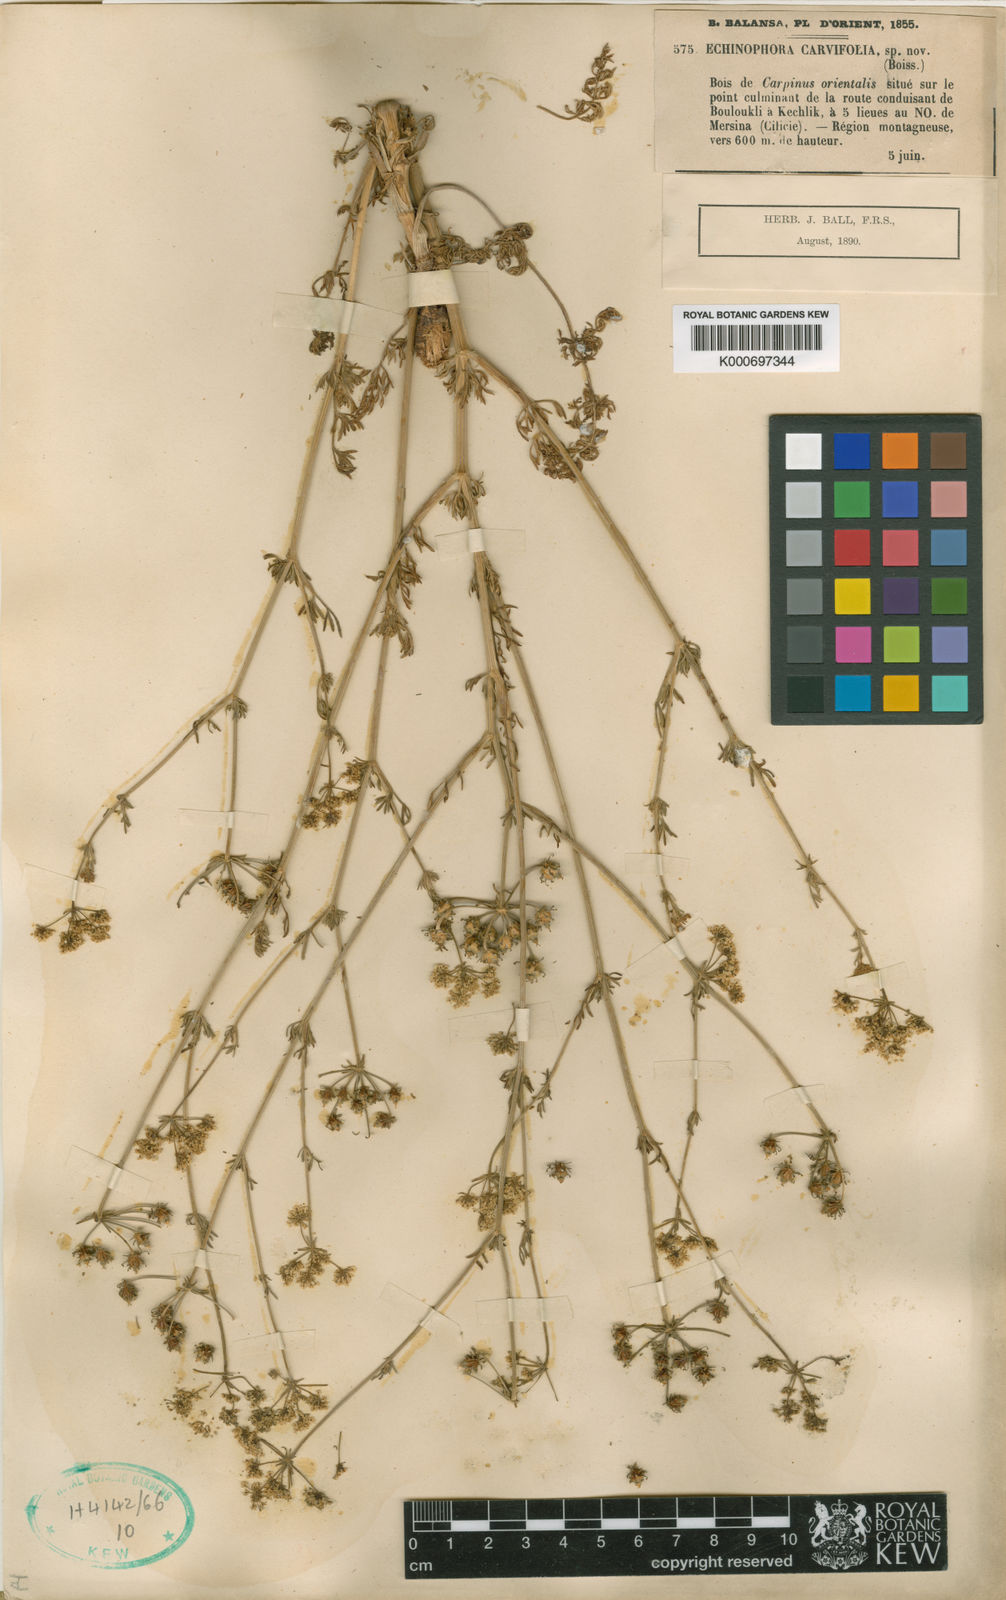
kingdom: Plantae
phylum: Tracheophyta
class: Magnoliopsida
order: Apiales
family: Apiaceae
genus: Thecocarpus
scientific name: Thecocarpus carvifolius
